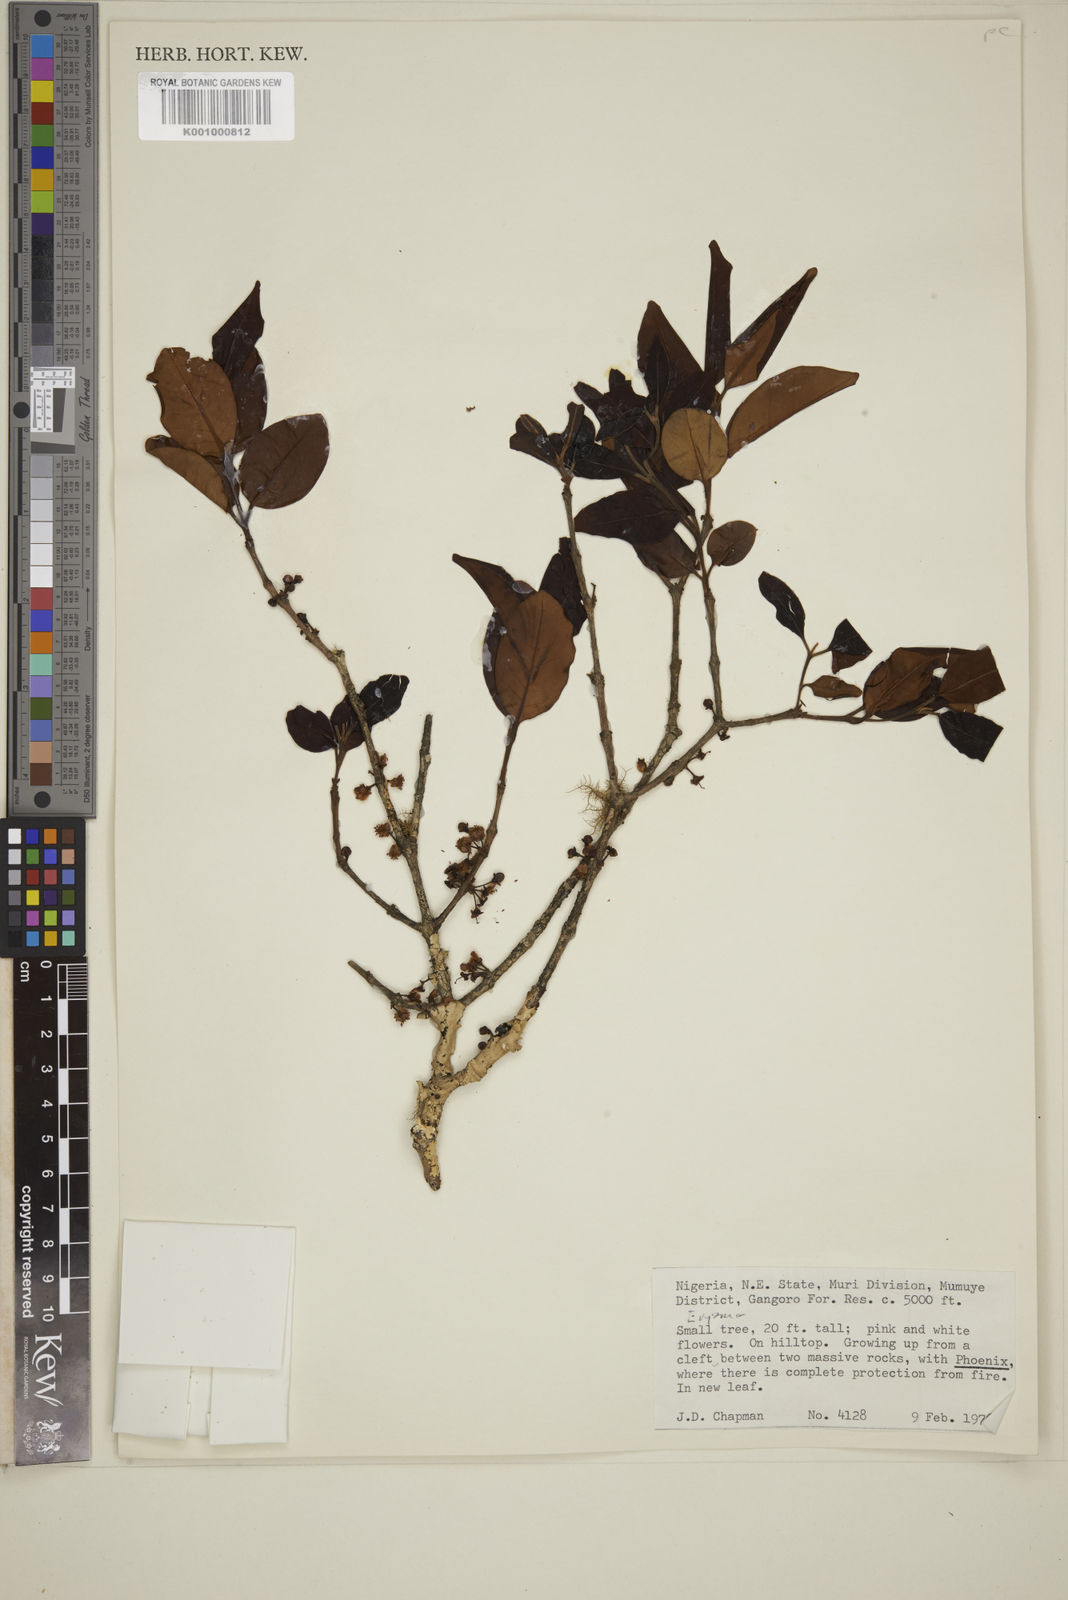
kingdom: Plantae
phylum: Tracheophyta
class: Magnoliopsida
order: Myrtales
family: Myrtaceae
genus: Eugenia
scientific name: Eugenia
